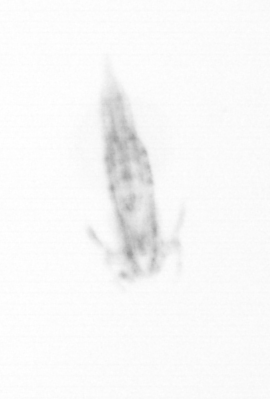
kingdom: Animalia
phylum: Arthropoda
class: Copepoda
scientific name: Copepoda
